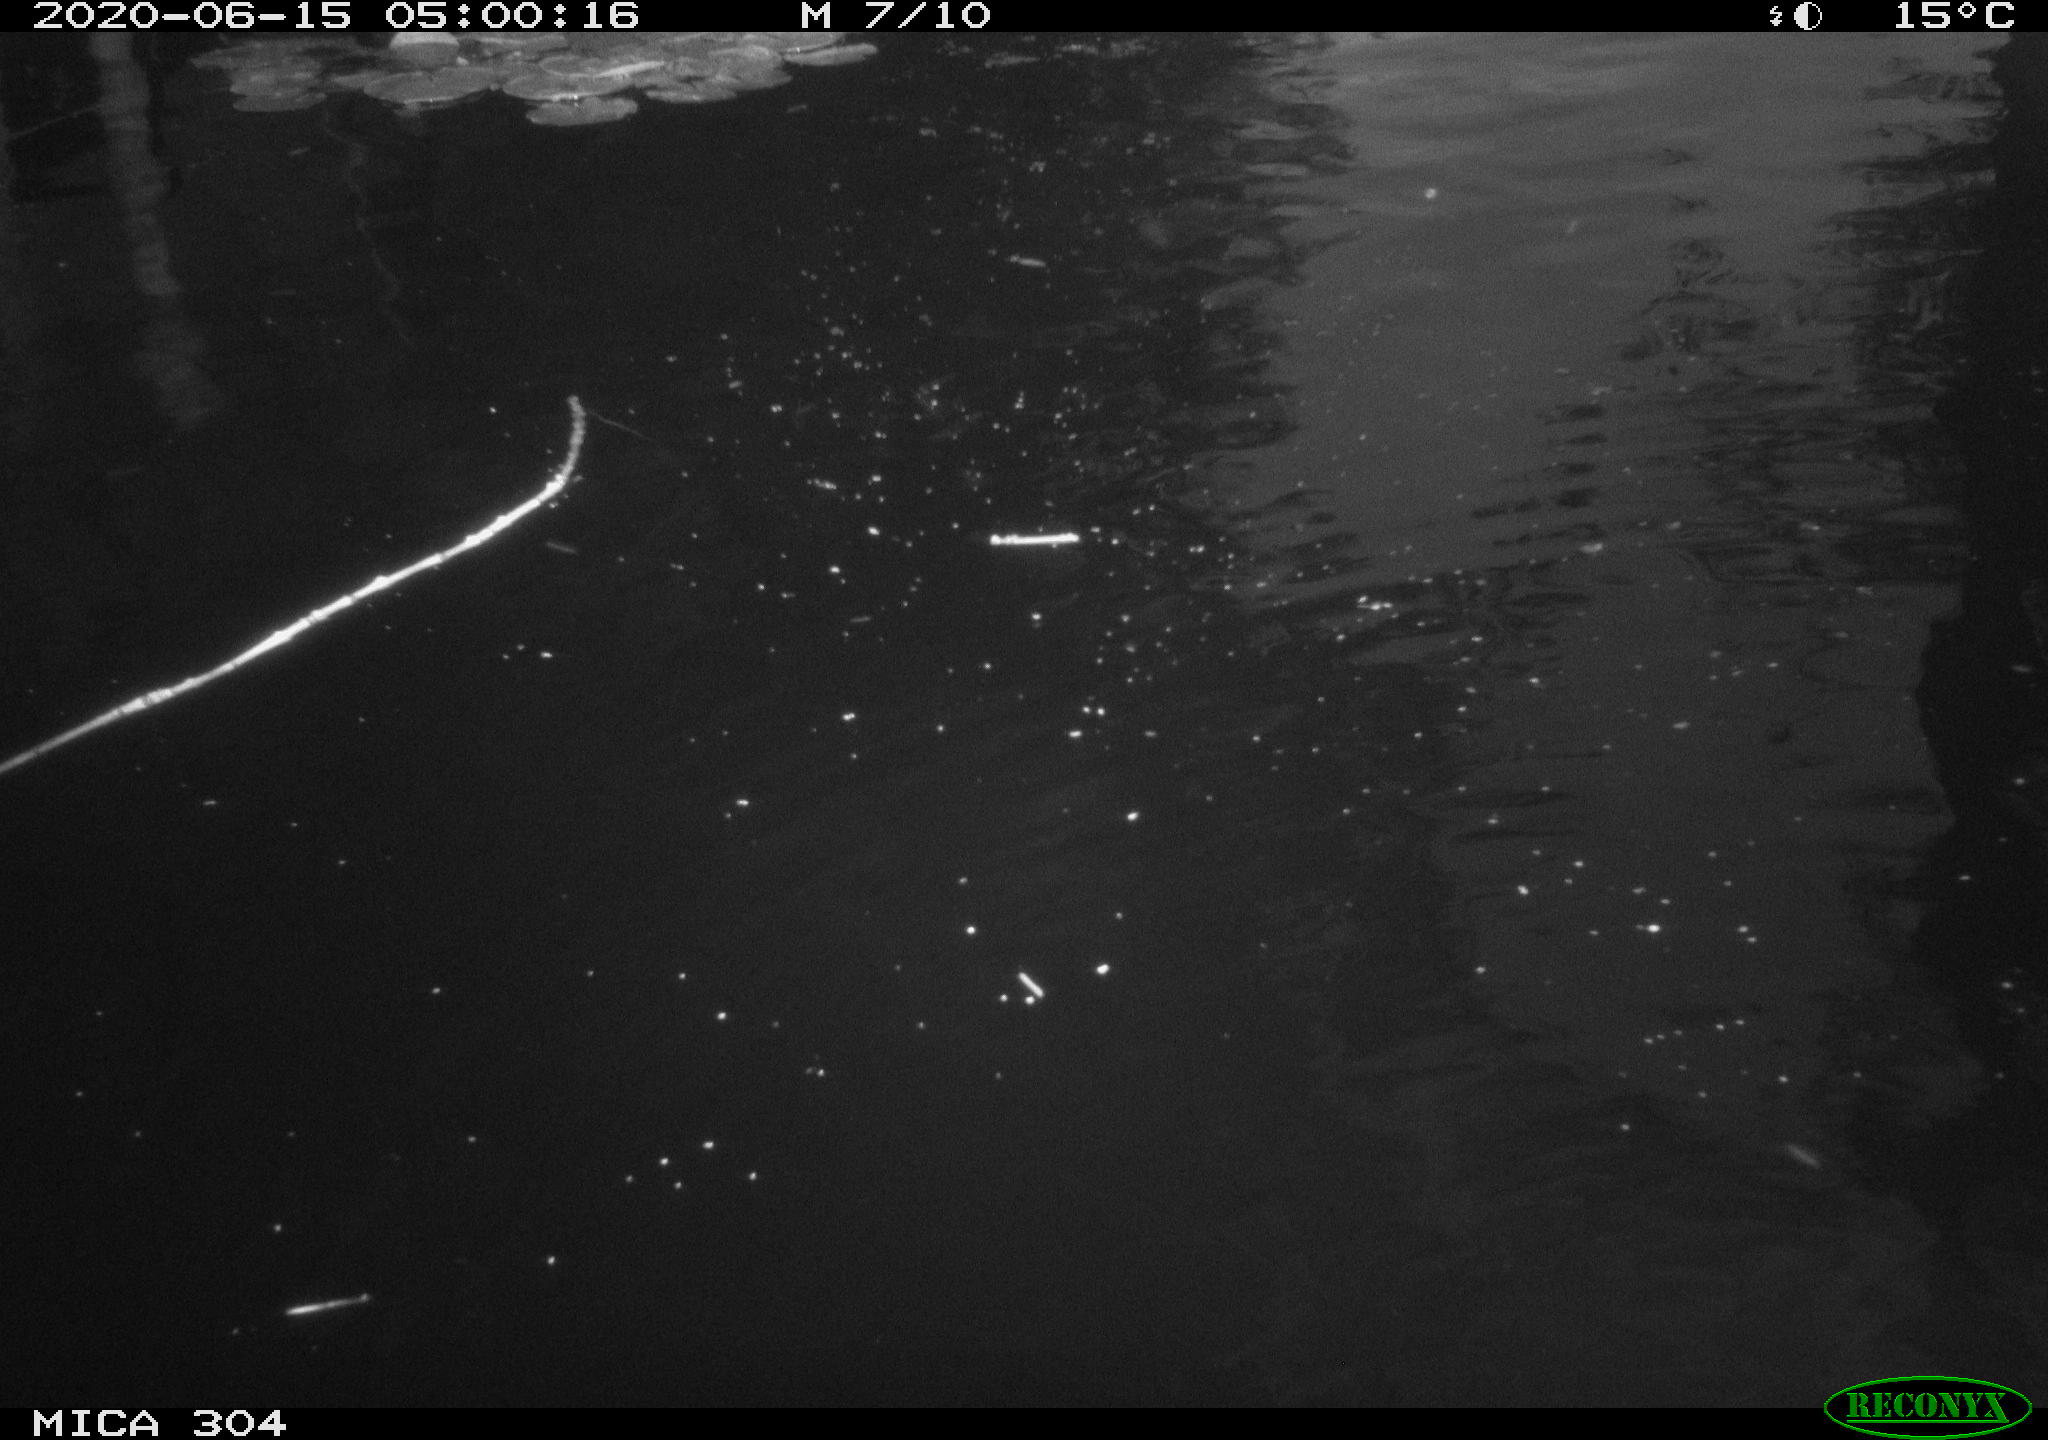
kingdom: Animalia
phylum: Chordata
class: Aves
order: Anseriformes
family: Anatidae
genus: Anas
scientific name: Anas platyrhynchos
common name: Mallard
